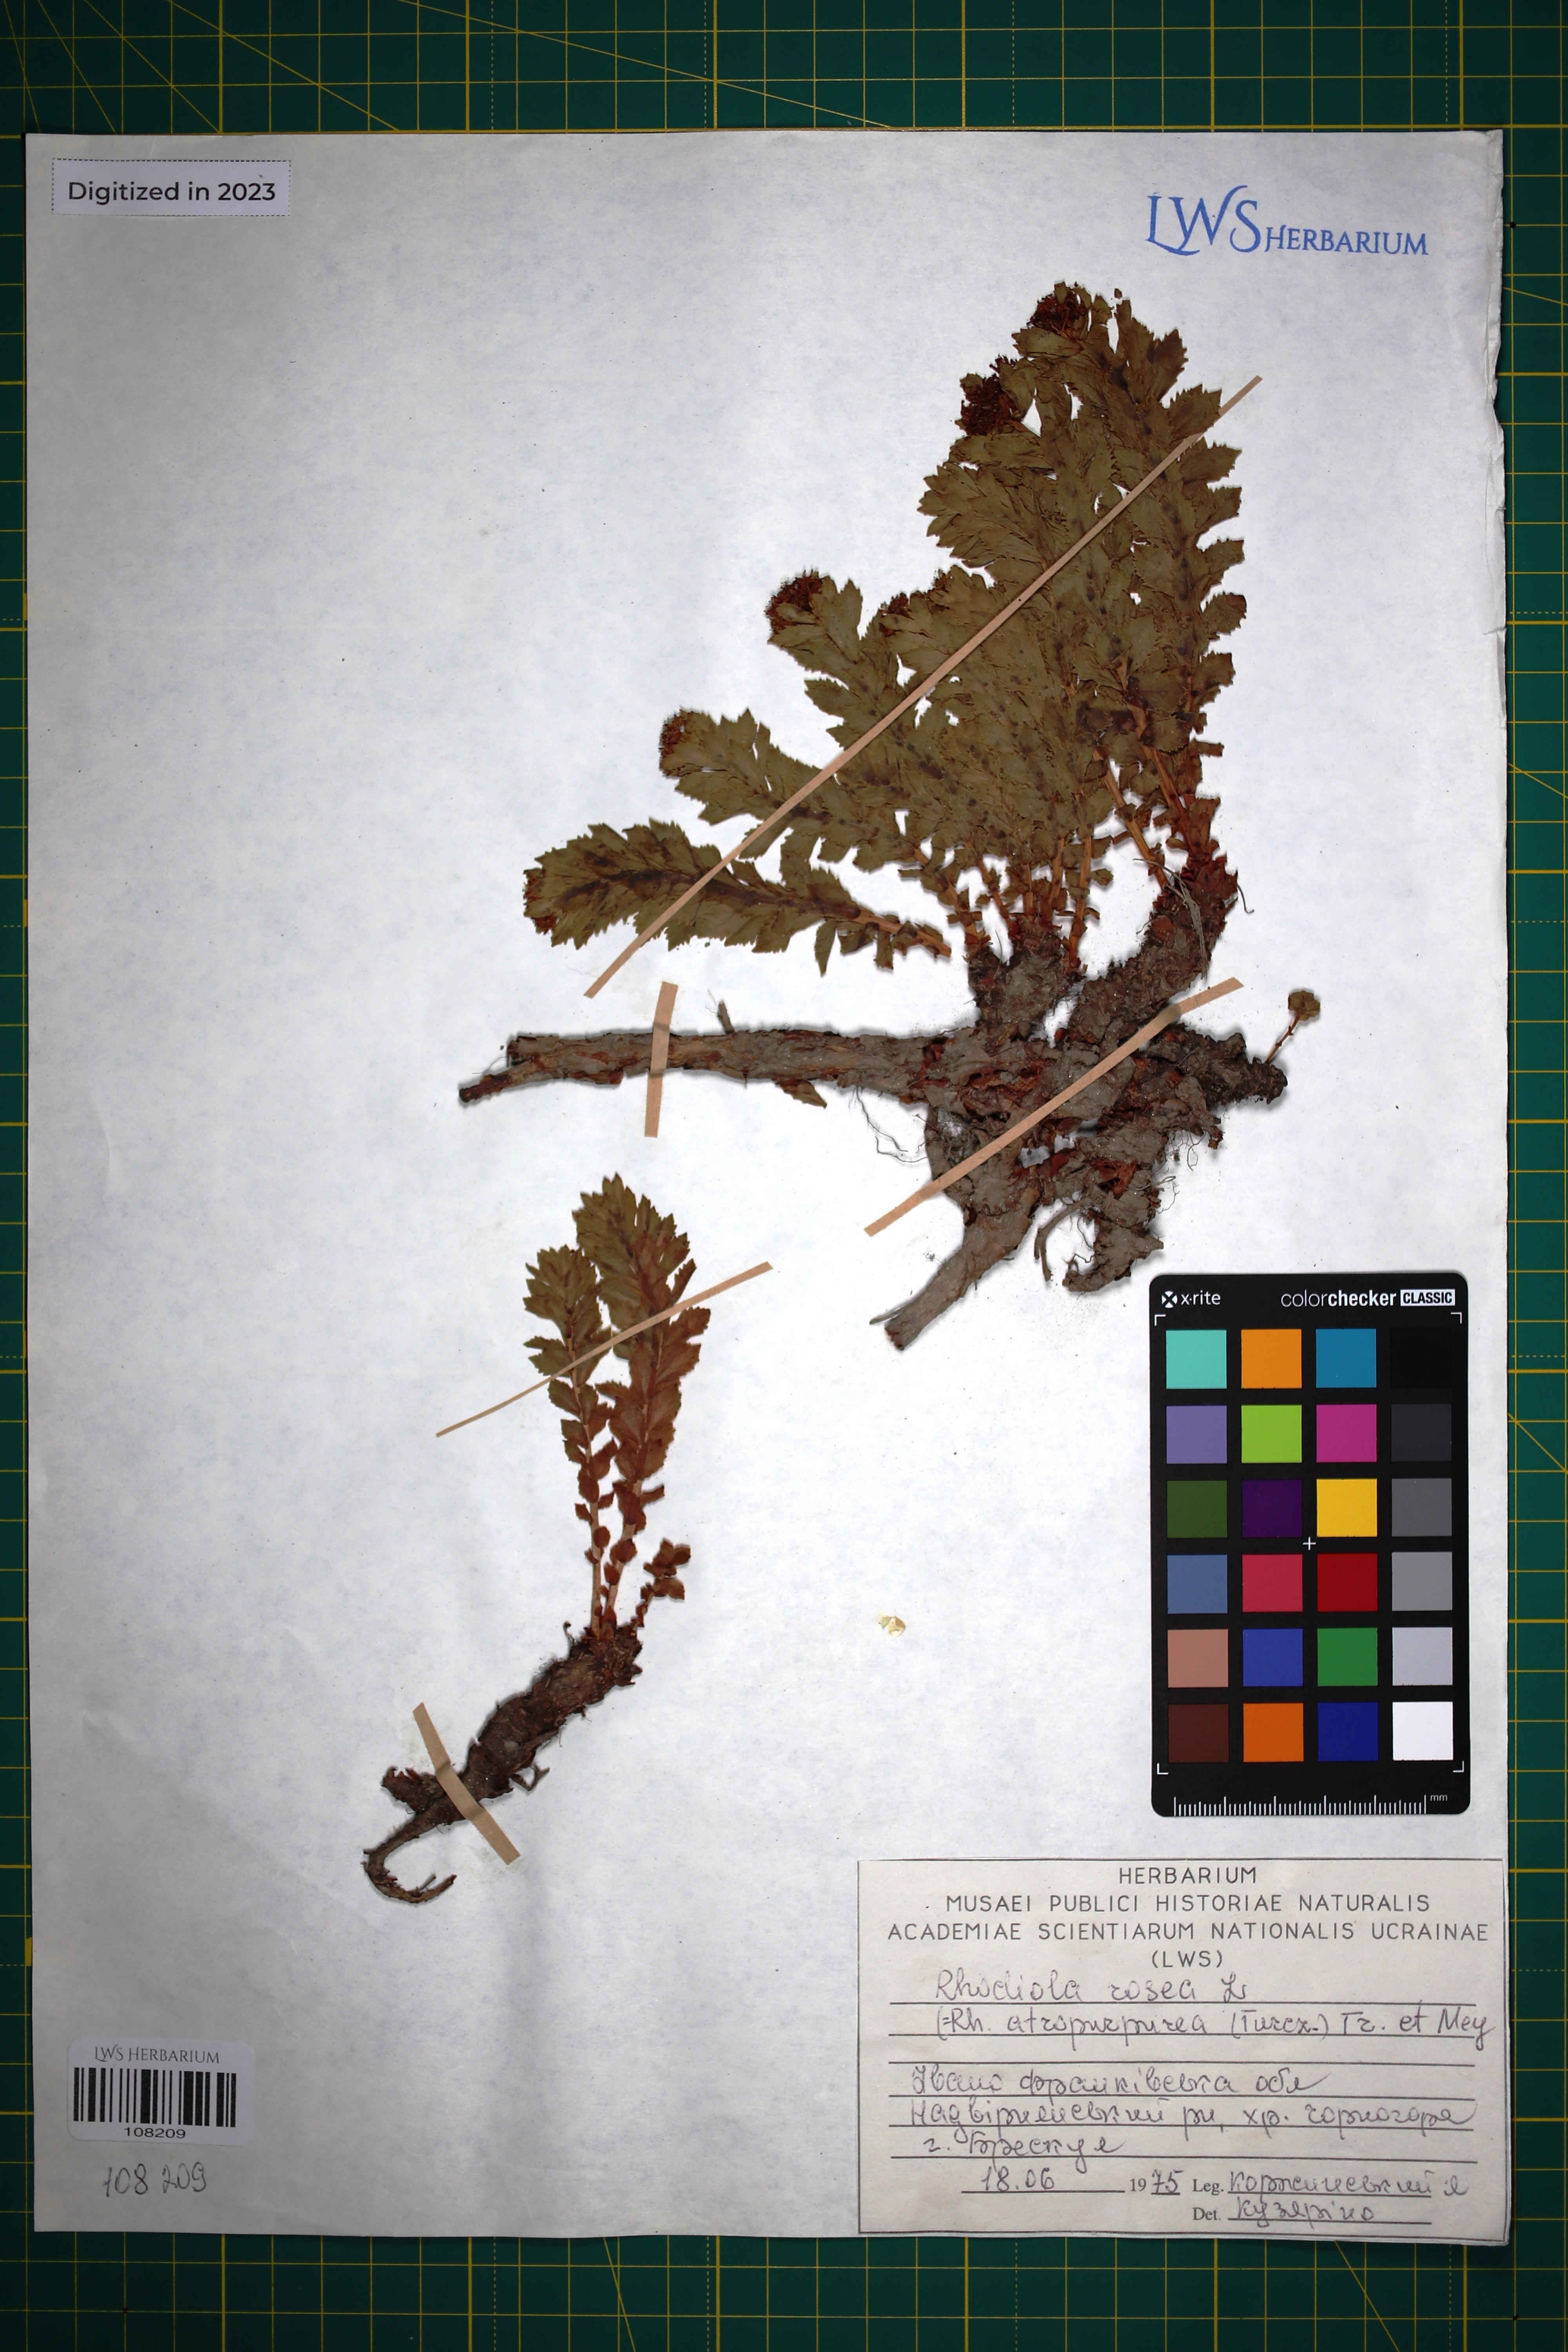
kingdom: Plantae
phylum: Tracheophyta
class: Magnoliopsida
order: Saxifragales
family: Crassulaceae
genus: Rhodiola
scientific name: Rhodiola rosea
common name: Roseroot
